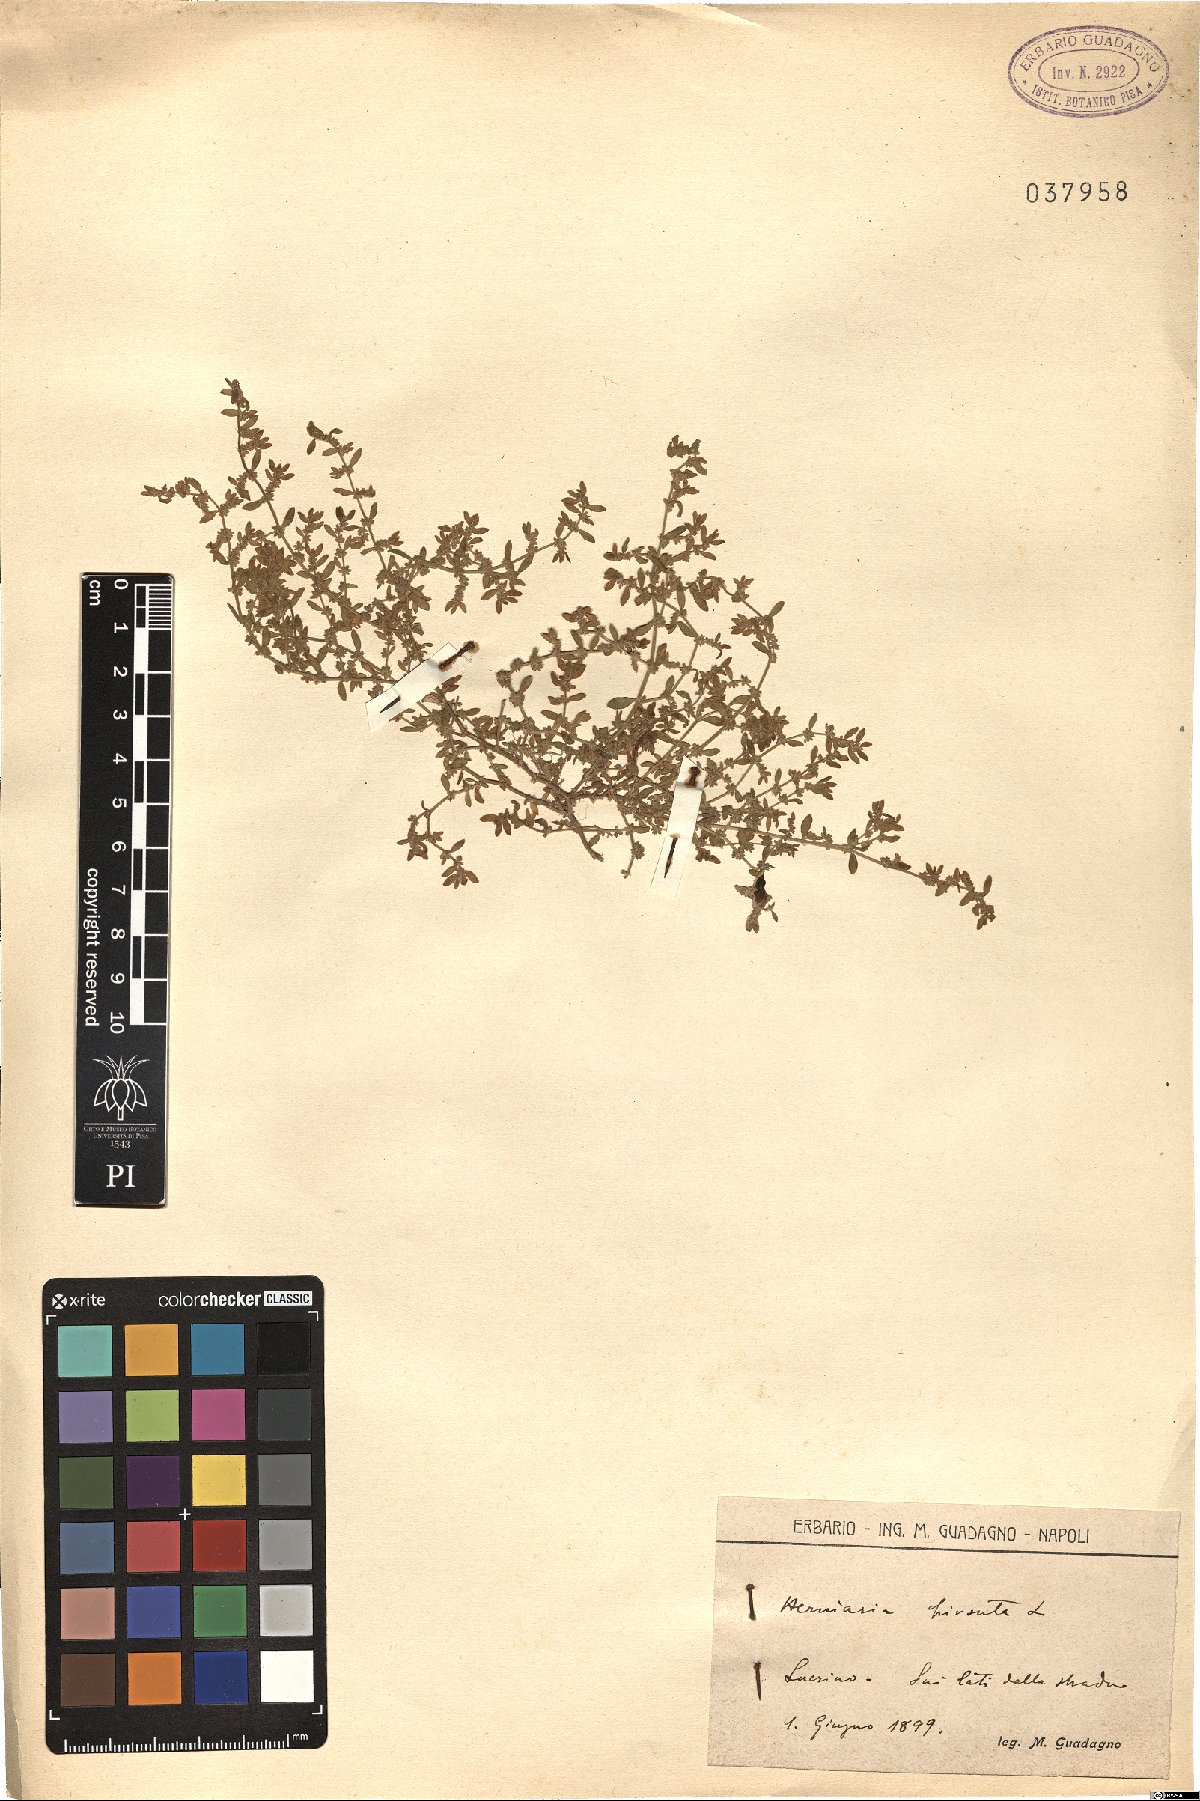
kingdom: Plantae
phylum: Tracheophyta
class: Magnoliopsida
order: Caryophyllales
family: Caryophyllaceae
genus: Herniaria
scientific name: Herniaria hirsuta
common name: Hairy rupturewort
